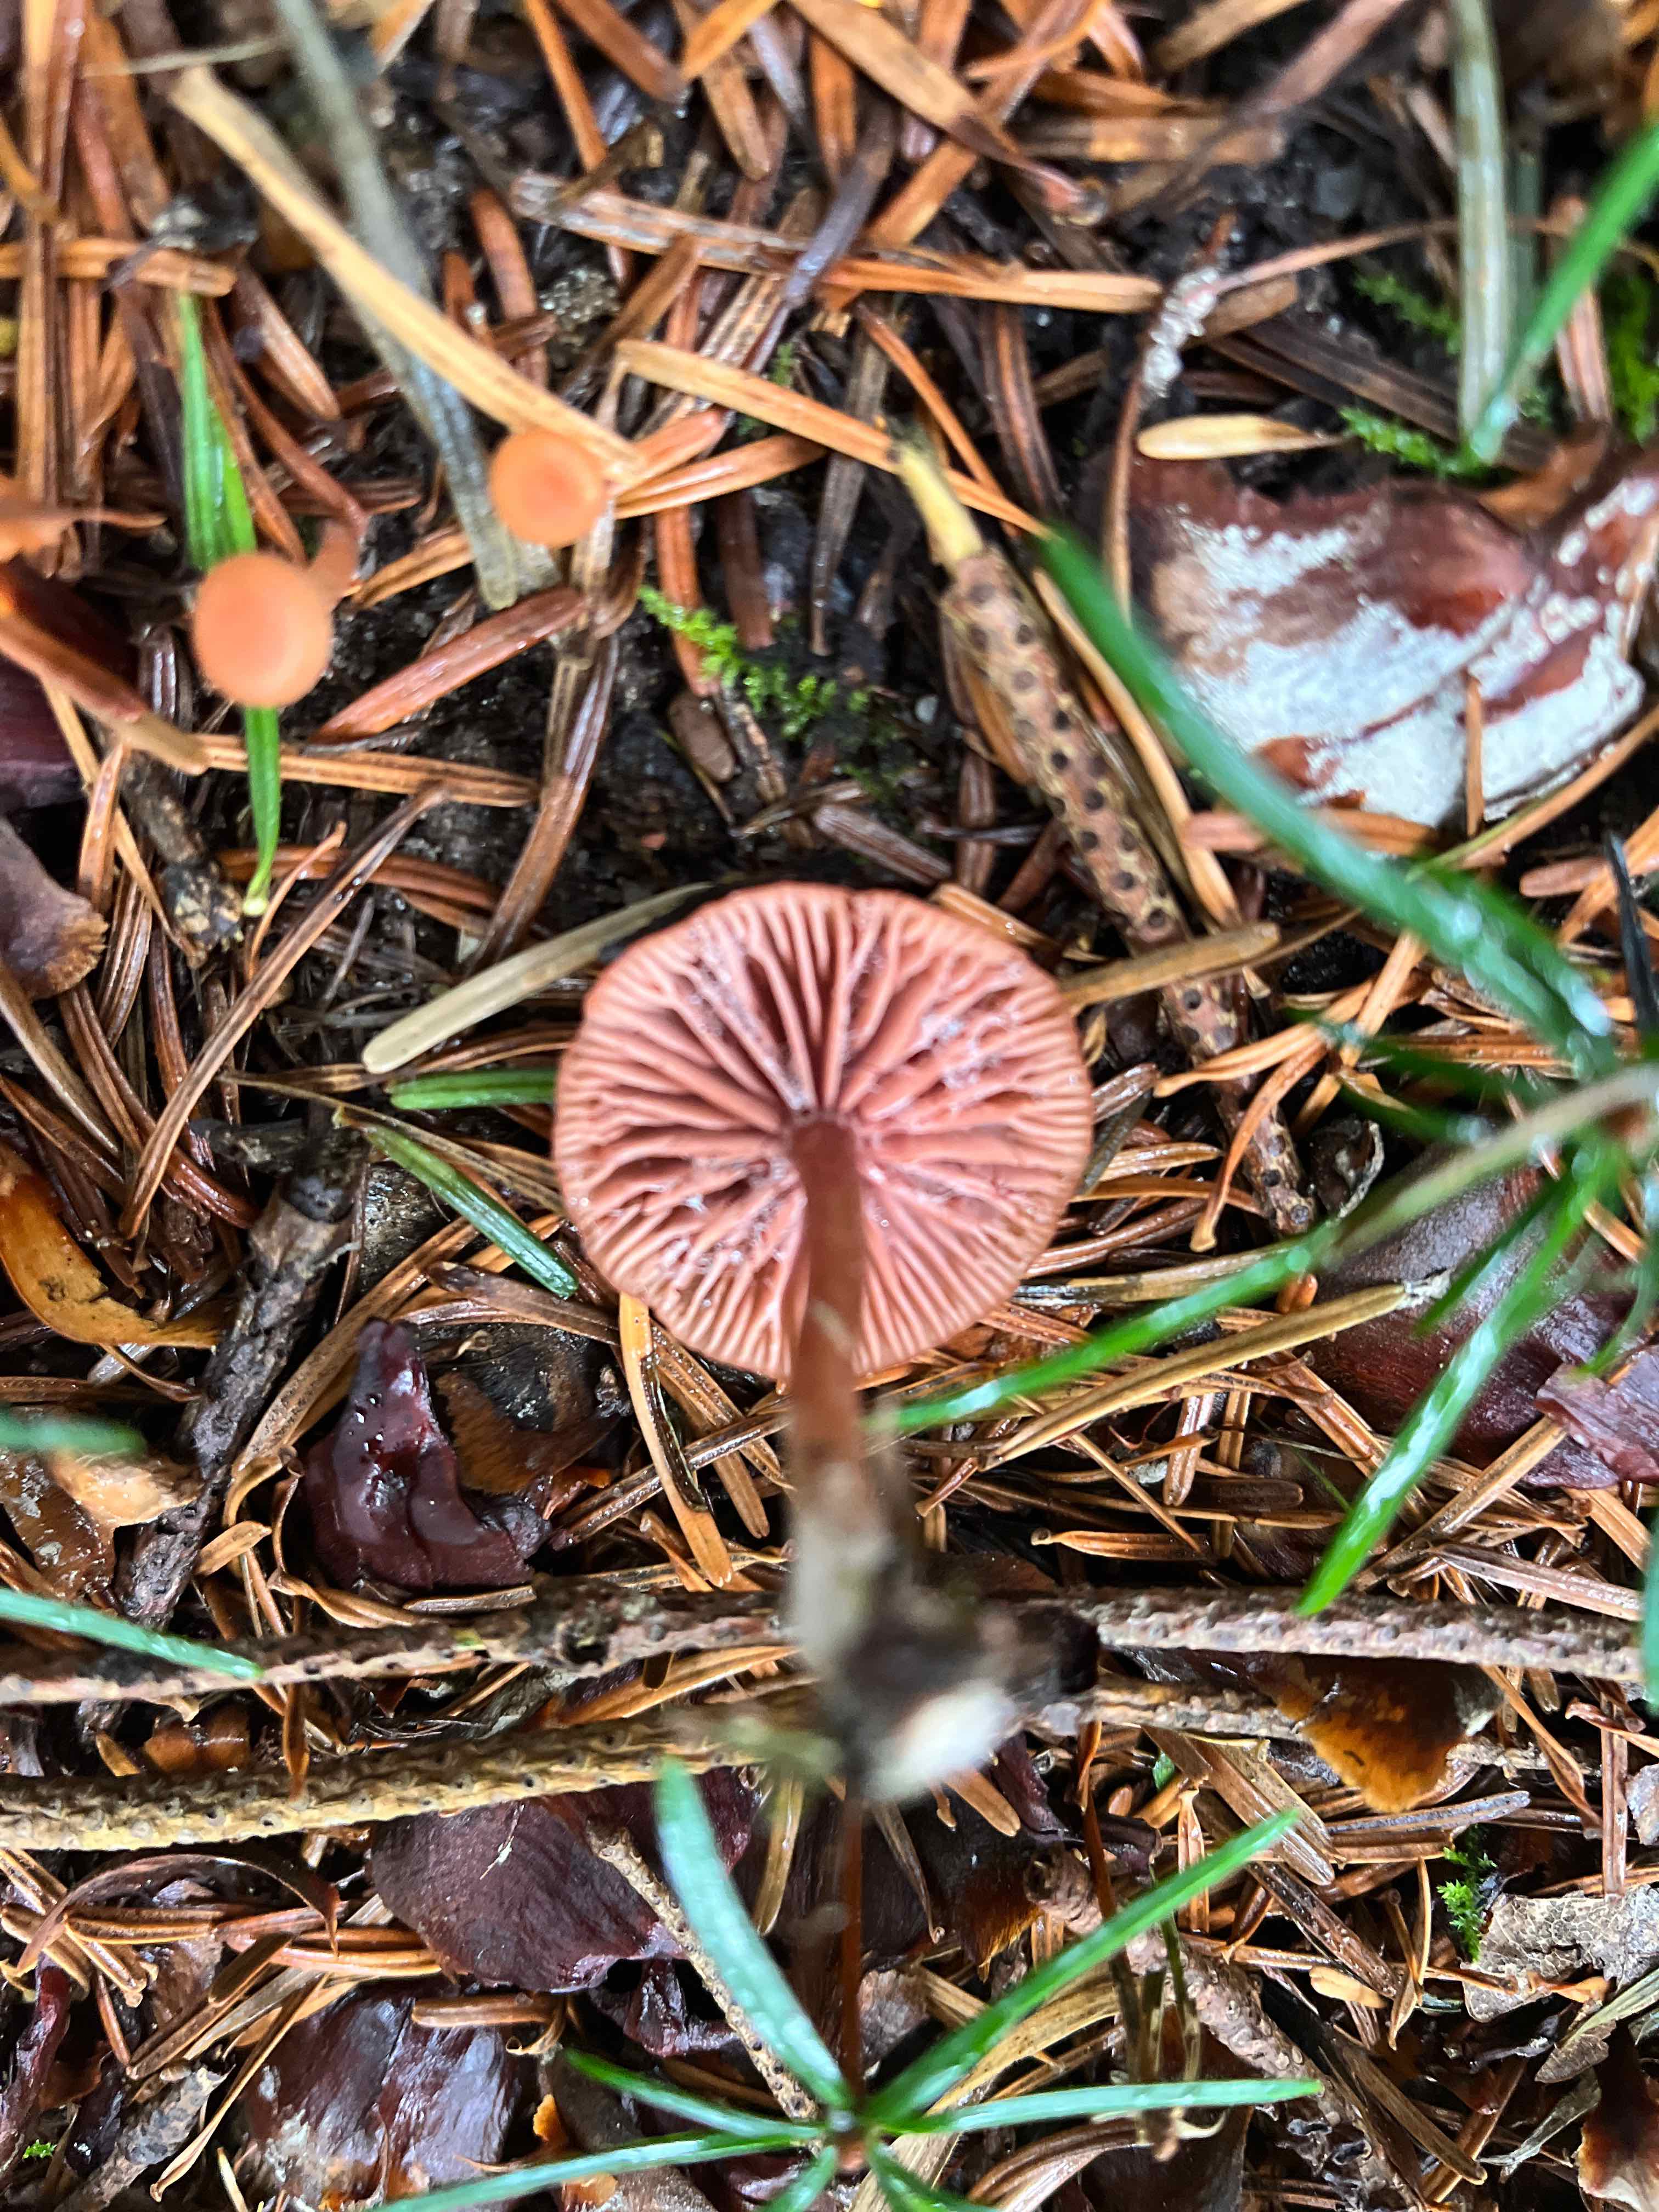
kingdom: Fungi
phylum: Basidiomycota
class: Agaricomycetes
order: Agaricales
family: Hydnangiaceae
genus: Laccaria
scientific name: Laccaria laccata
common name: rød ametysthat
